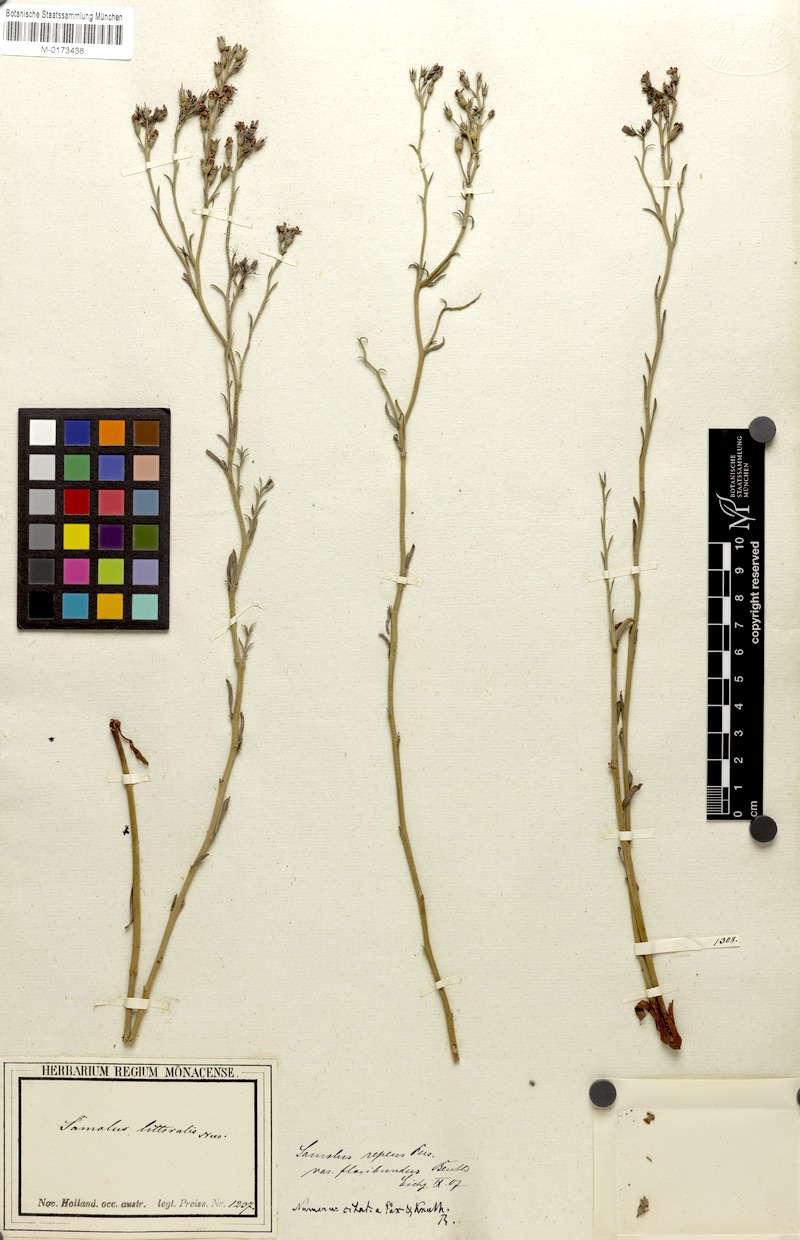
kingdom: Plantae
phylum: Tracheophyta
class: Magnoliopsida
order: Ericales
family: Primulaceae
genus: Samolus
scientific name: Samolus repens
